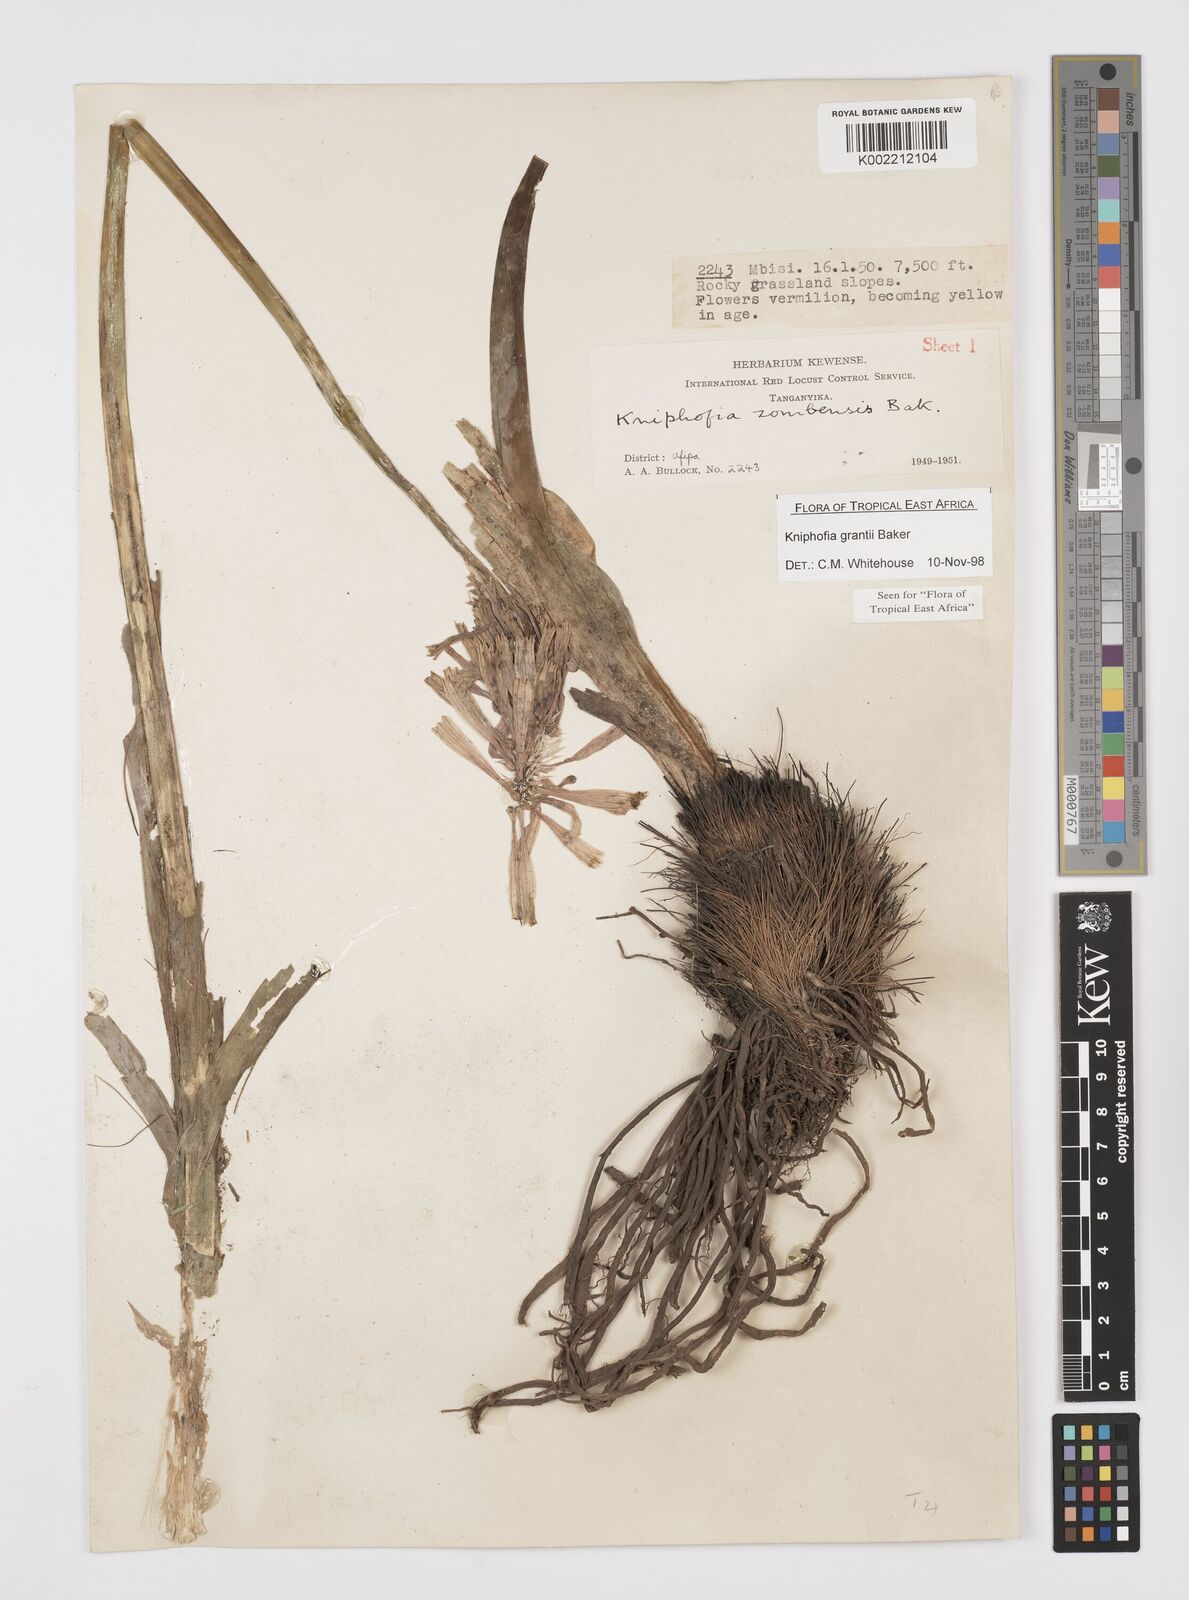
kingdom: Plantae
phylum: Tracheophyta
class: Liliopsida
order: Asparagales
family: Asphodelaceae
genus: Kniphofia
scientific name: Kniphofia grantii
